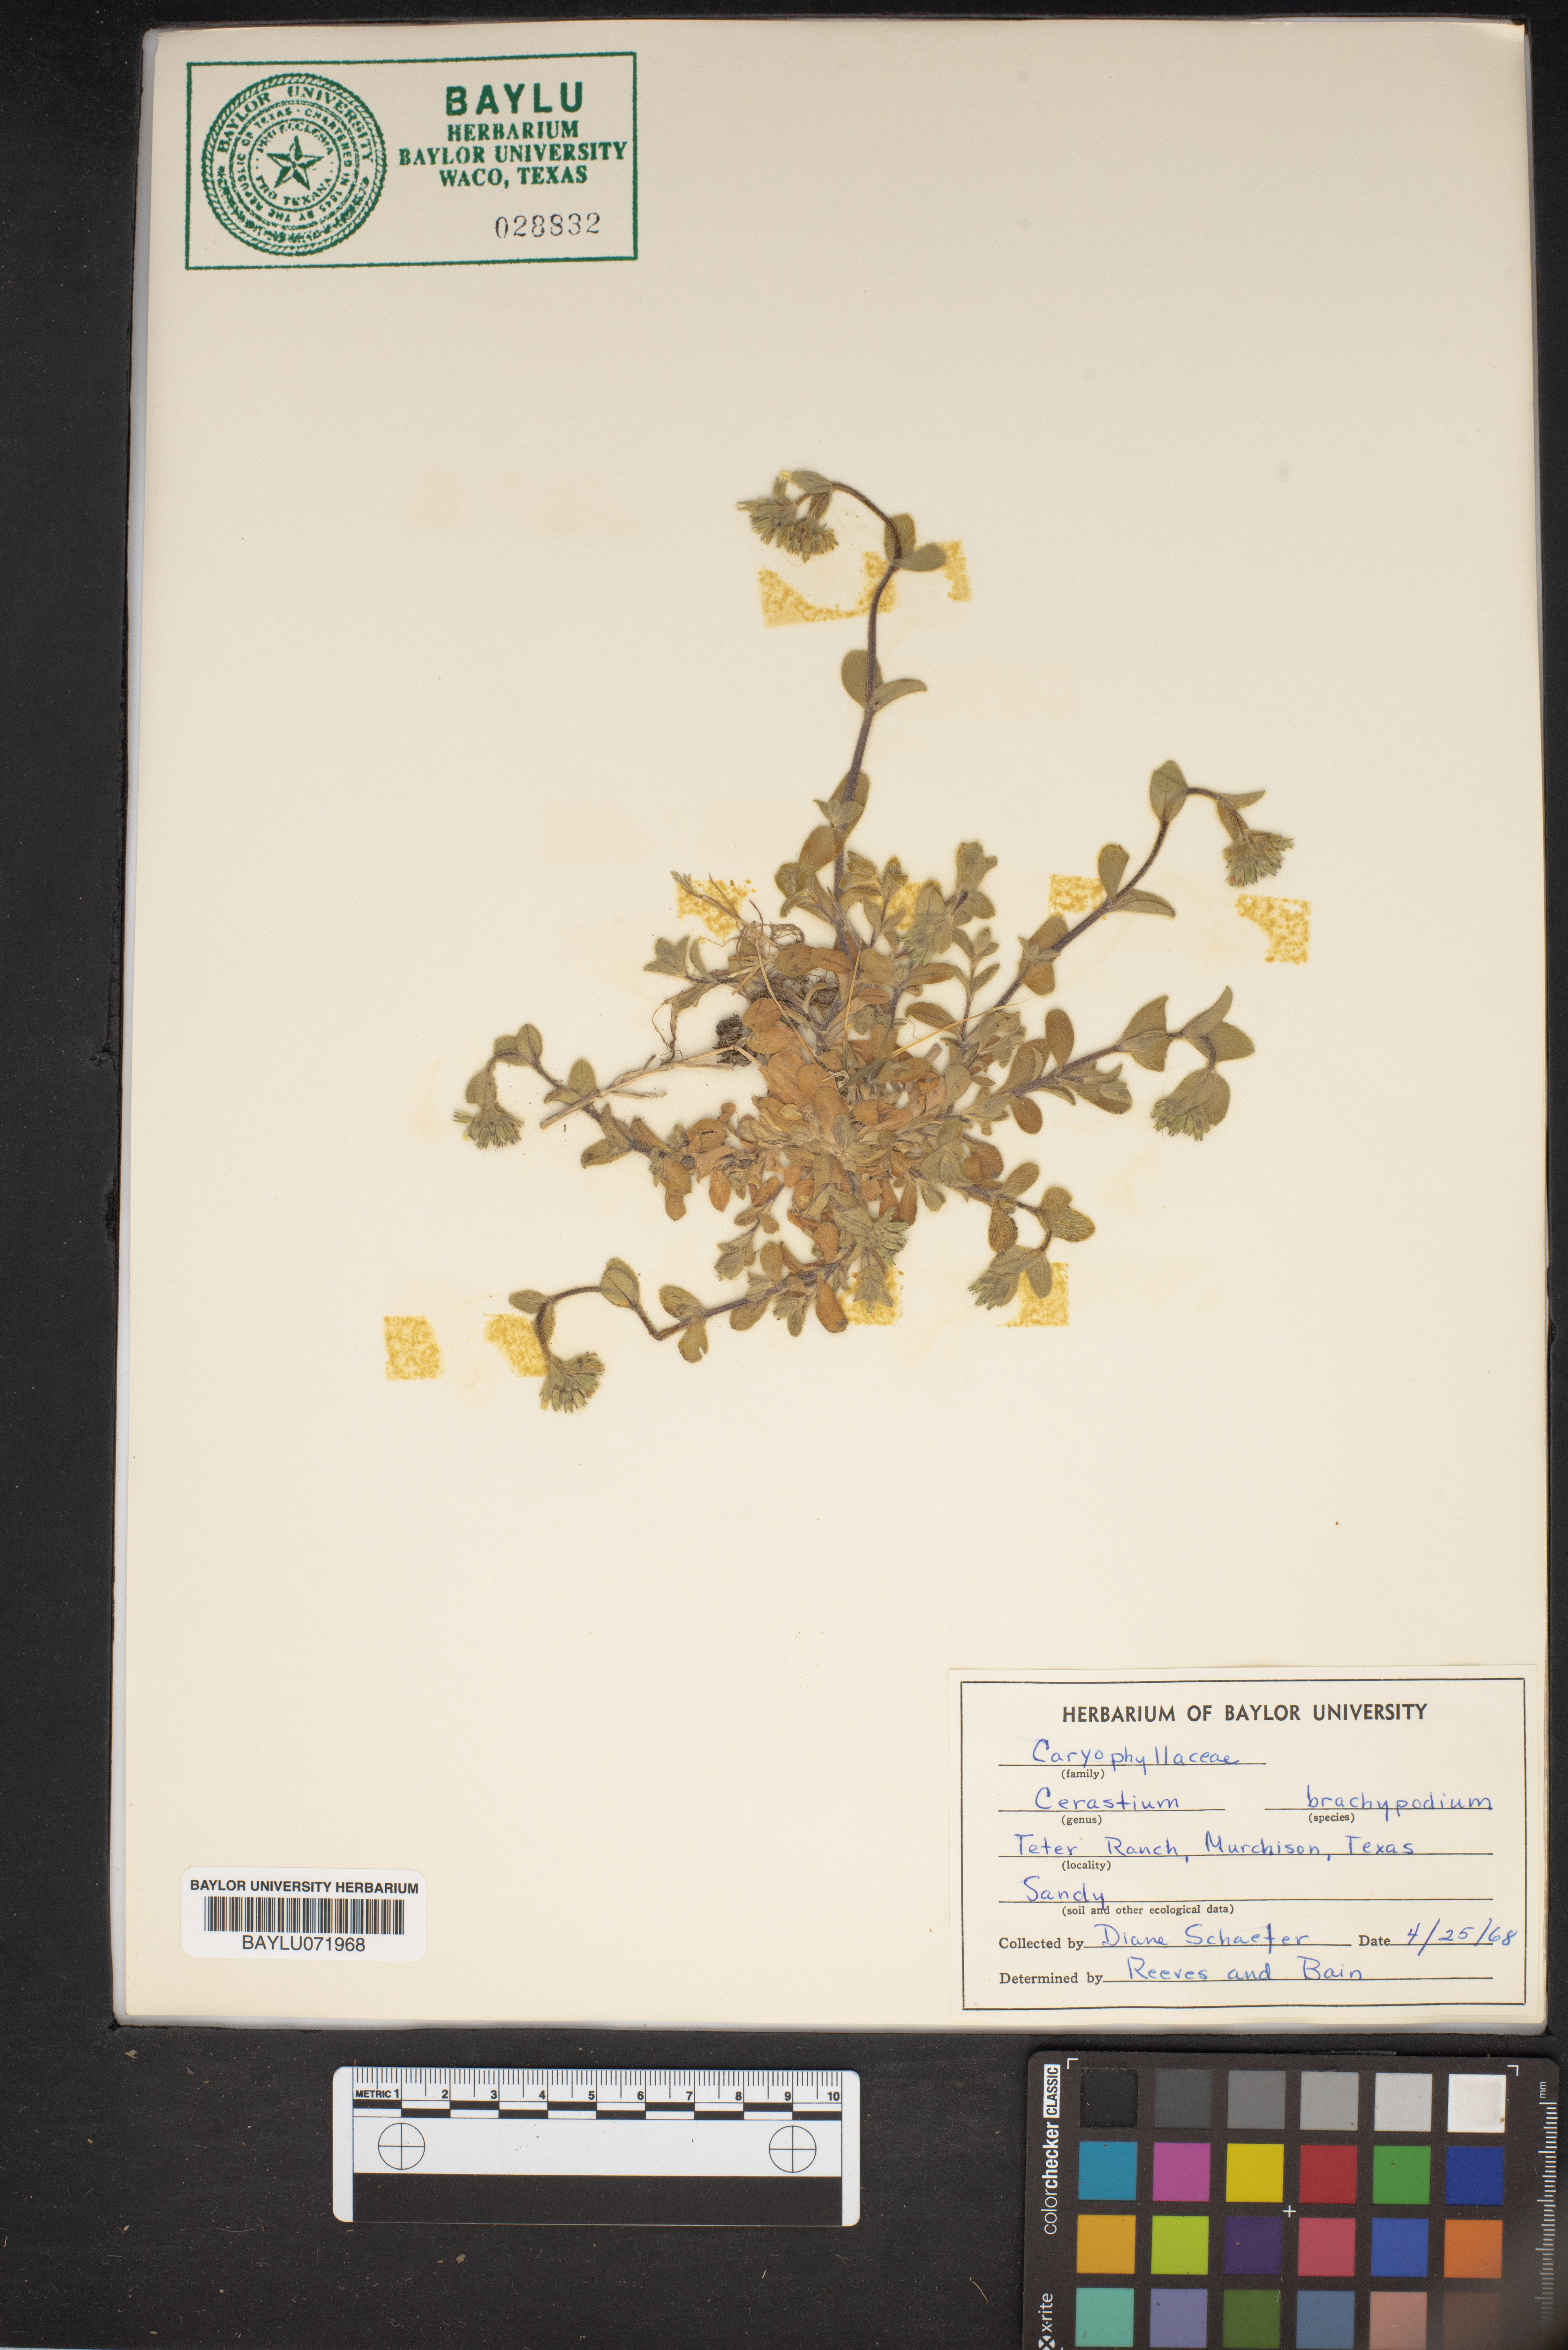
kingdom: Plantae
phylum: Tracheophyta
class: Magnoliopsida
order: Caryophyllales
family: Caryophyllaceae
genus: Cerastium
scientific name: Cerastium brachypodum
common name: Short-pedicelled nodding chickweed
